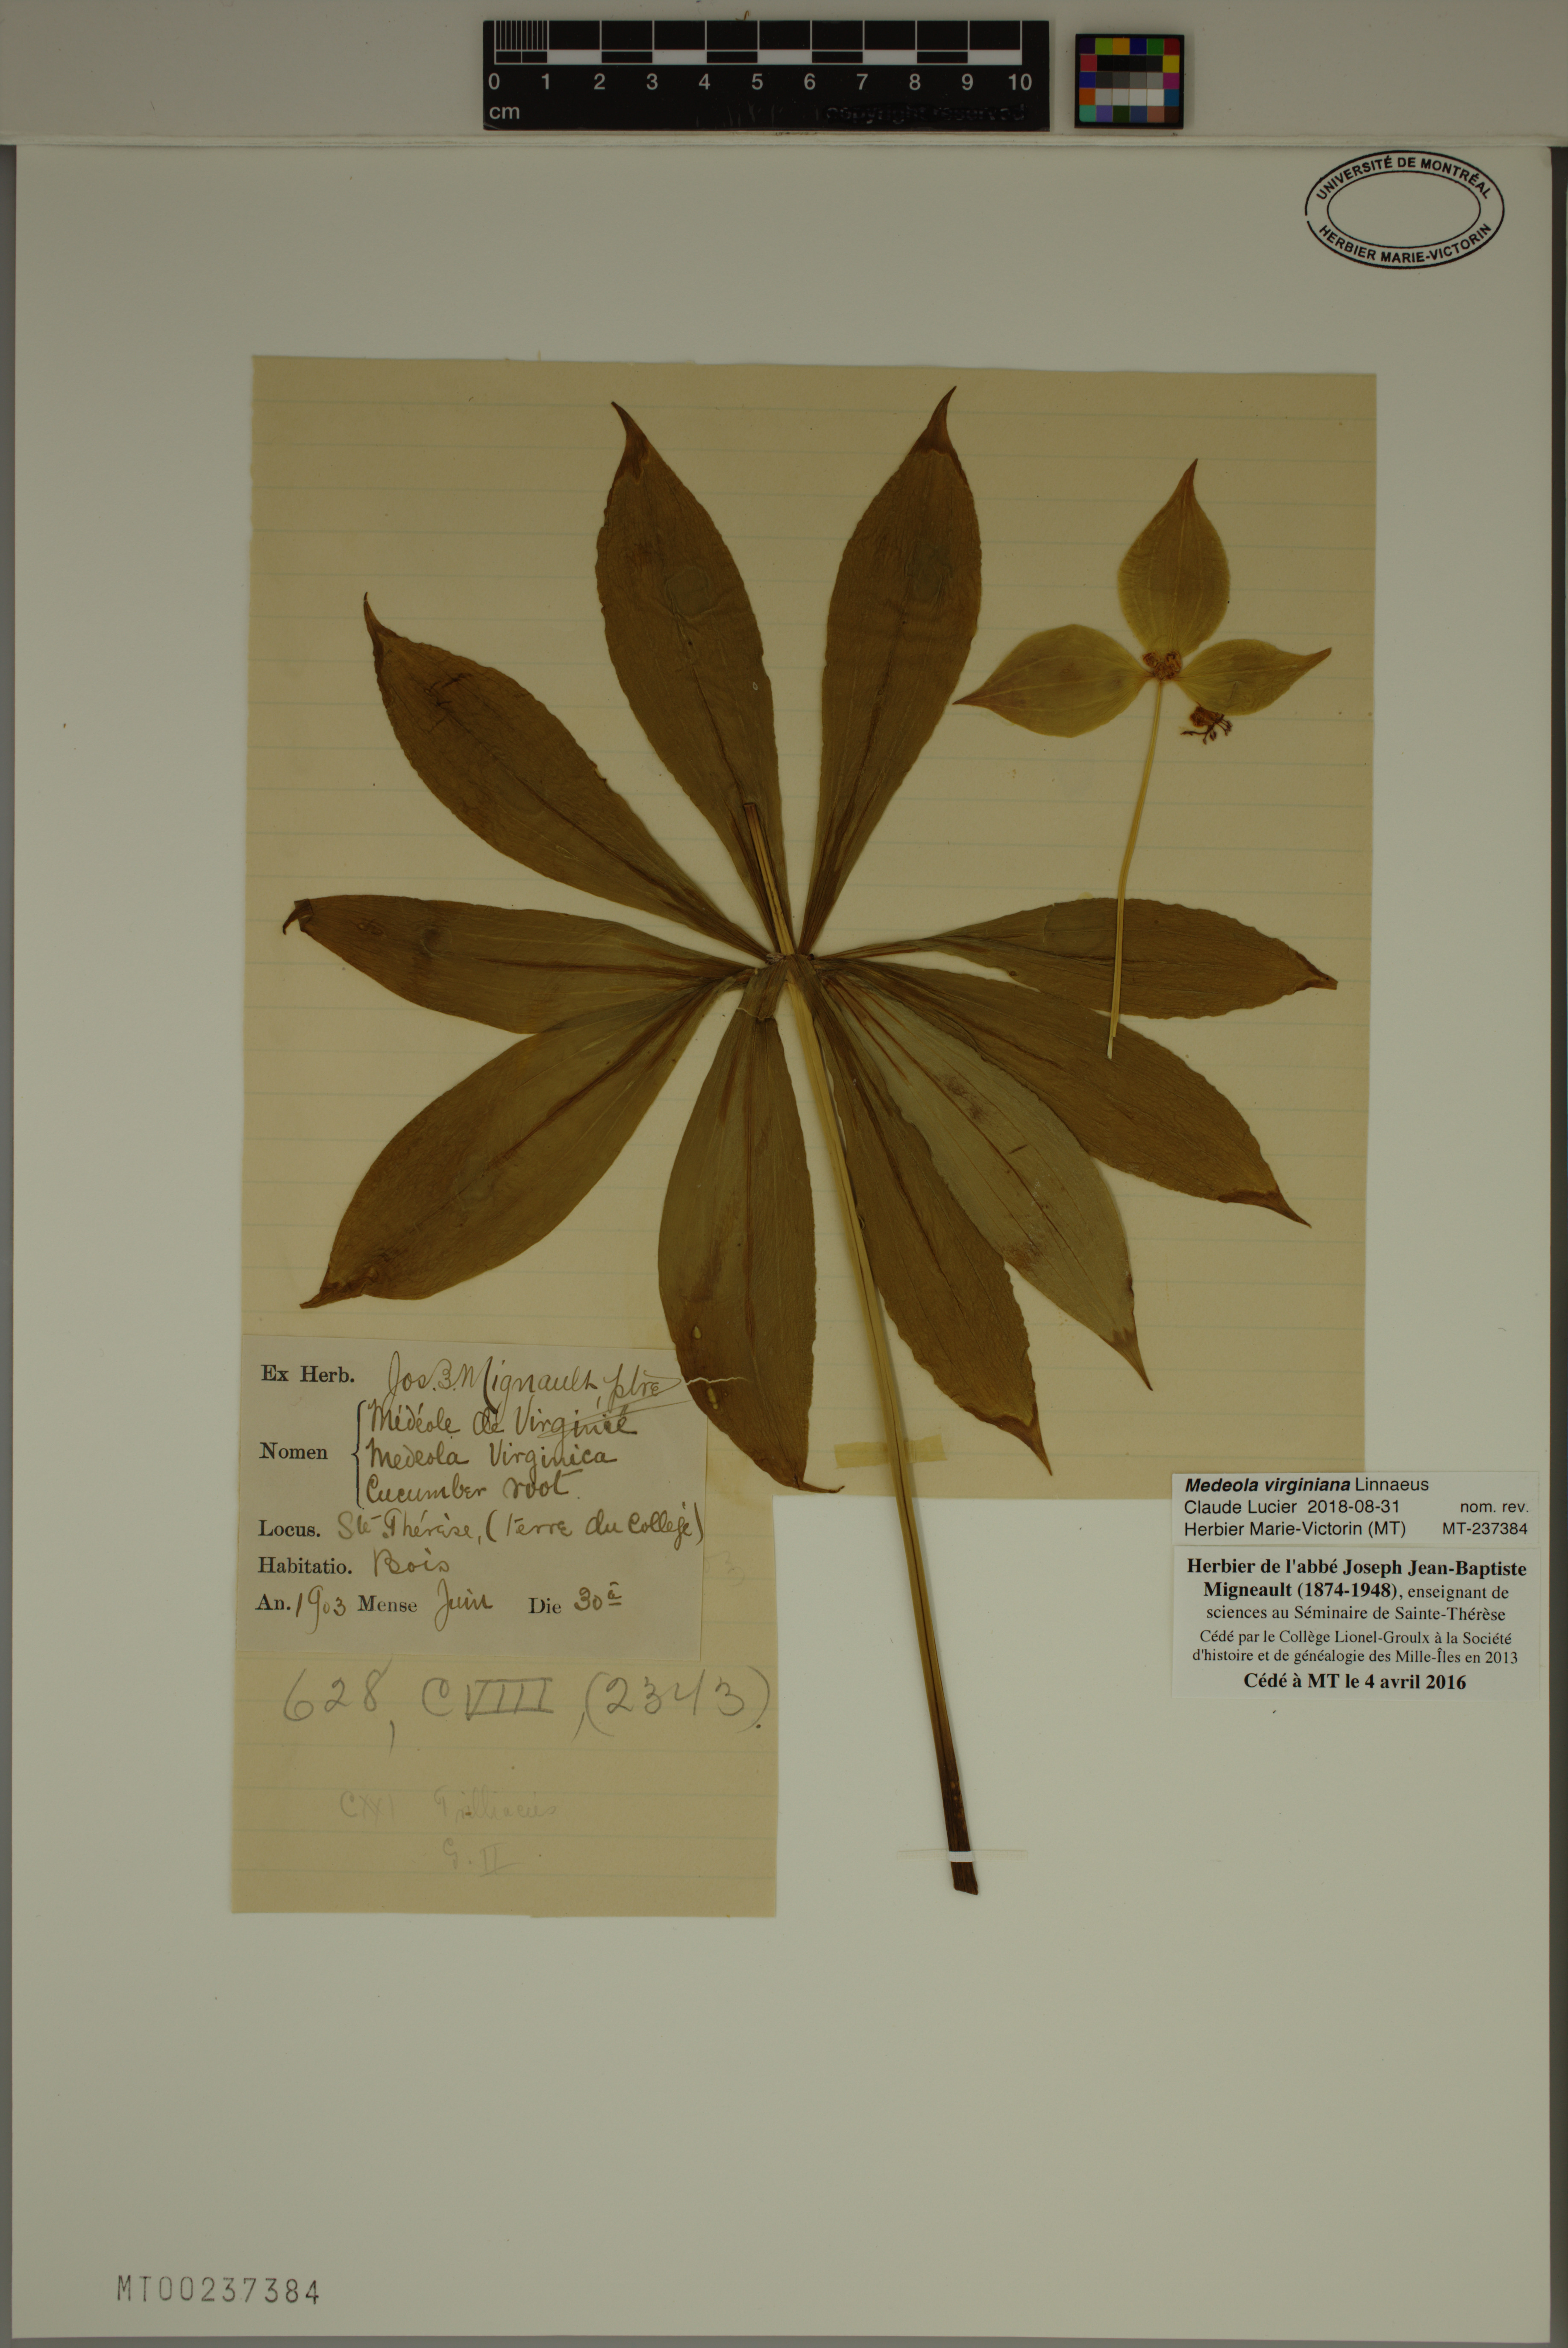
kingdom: Plantae
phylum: Tracheophyta
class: Liliopsida
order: Liliales
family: Liliaceae
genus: Medeola
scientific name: Medeola virginiana
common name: Indian cucumber-root
